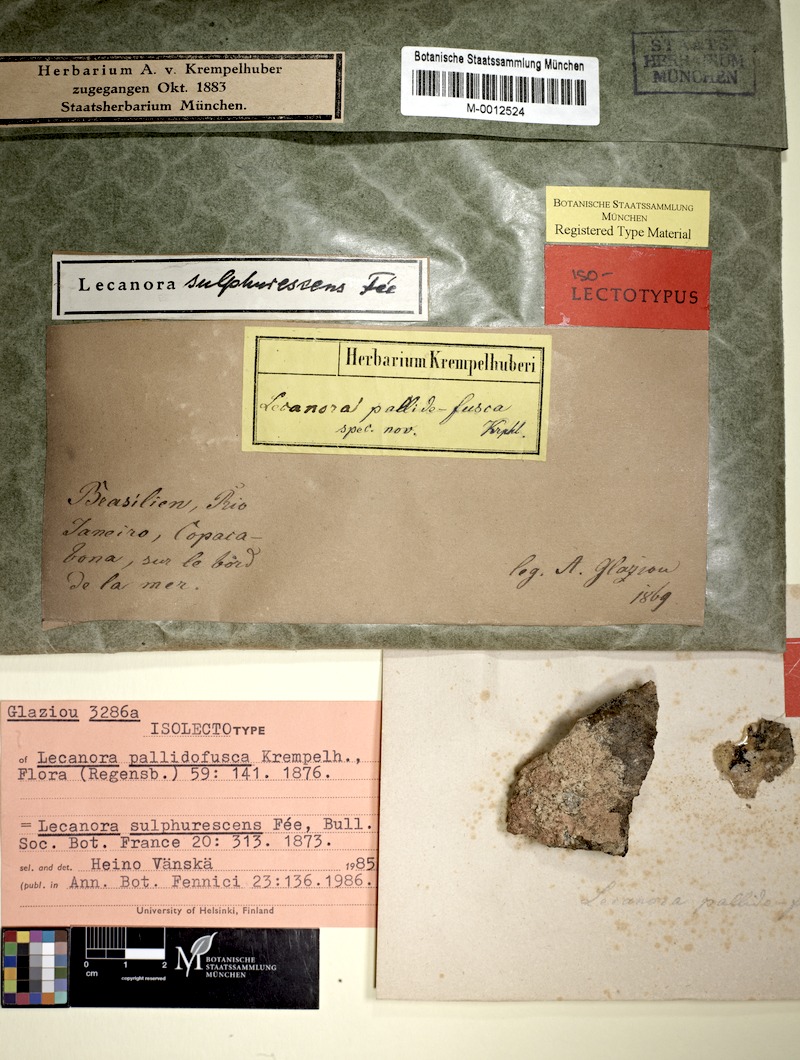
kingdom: Fungi
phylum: Ascomycota
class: Lecanoromycetes
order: Lecanorales
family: Lecanoraceae
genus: Lecanora
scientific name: Lecanora sulphurescens
